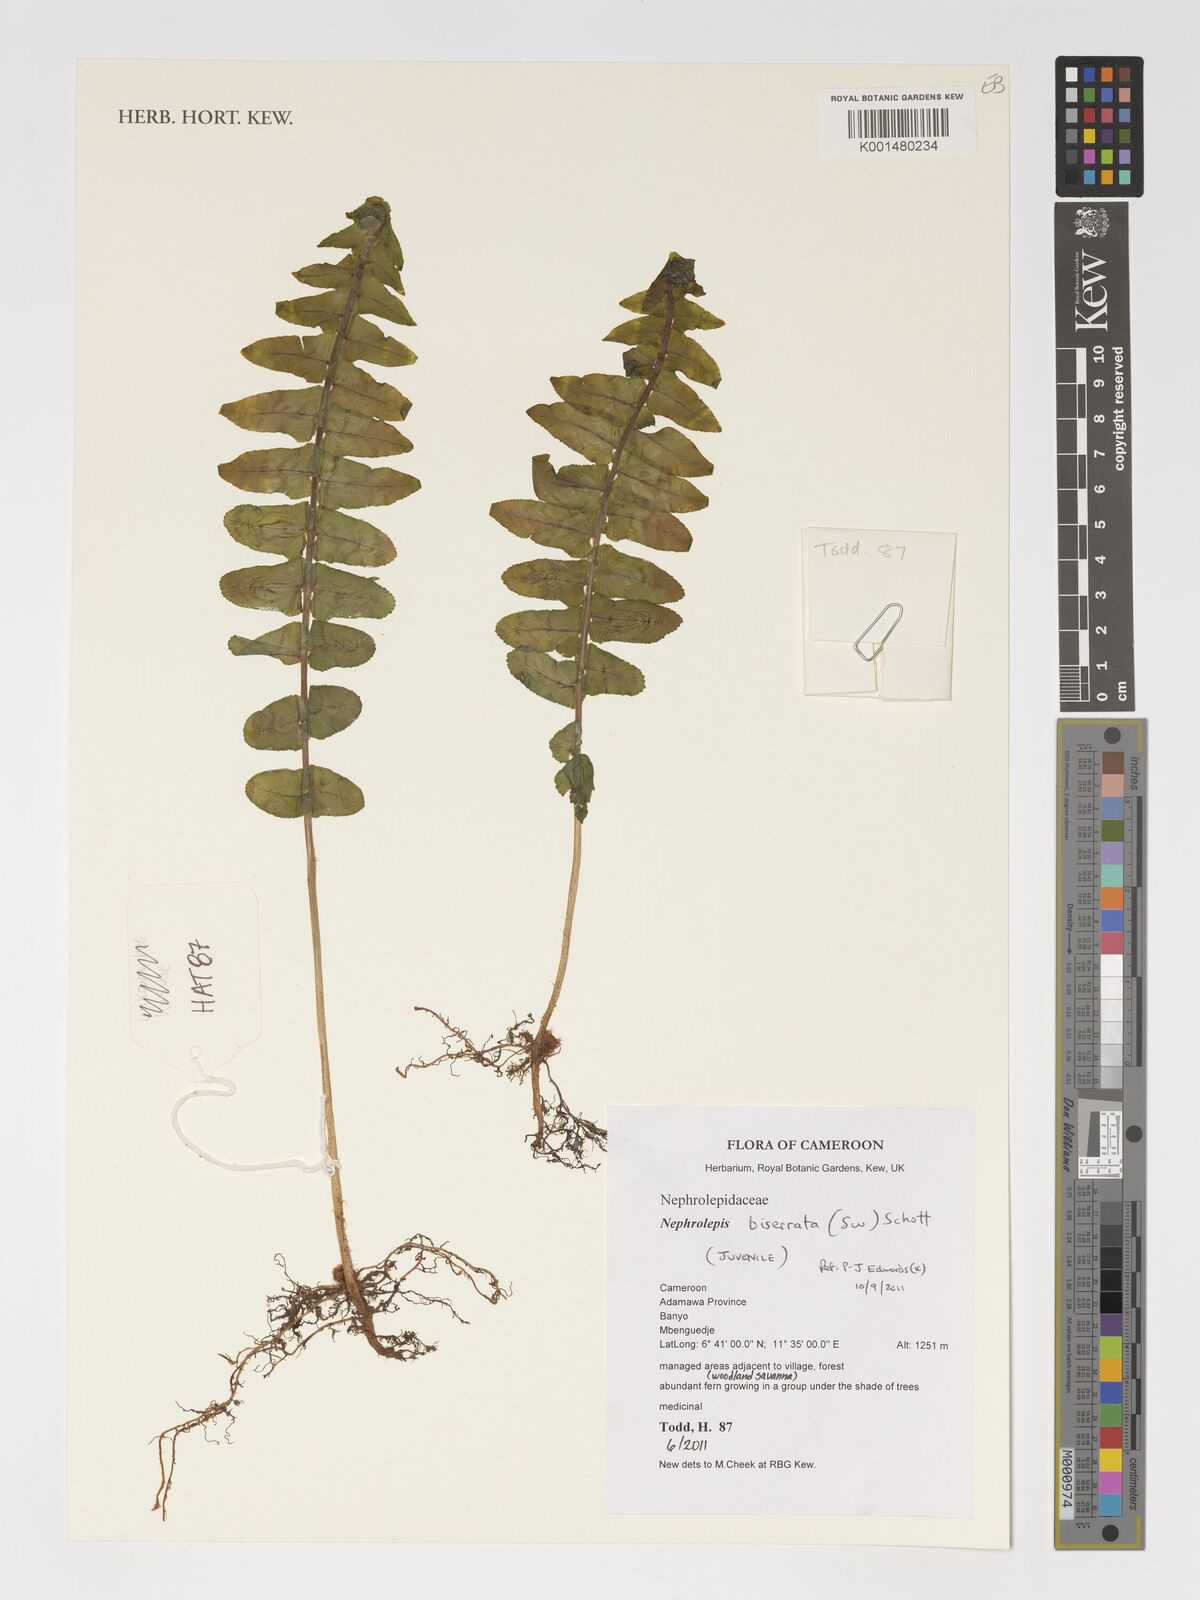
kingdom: Plantae
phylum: Tracheophyta
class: Polypodiopsida
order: Polypodiales
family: Nephrolepidaceae
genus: Nephrolepis
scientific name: Nephrolepis biserrata
